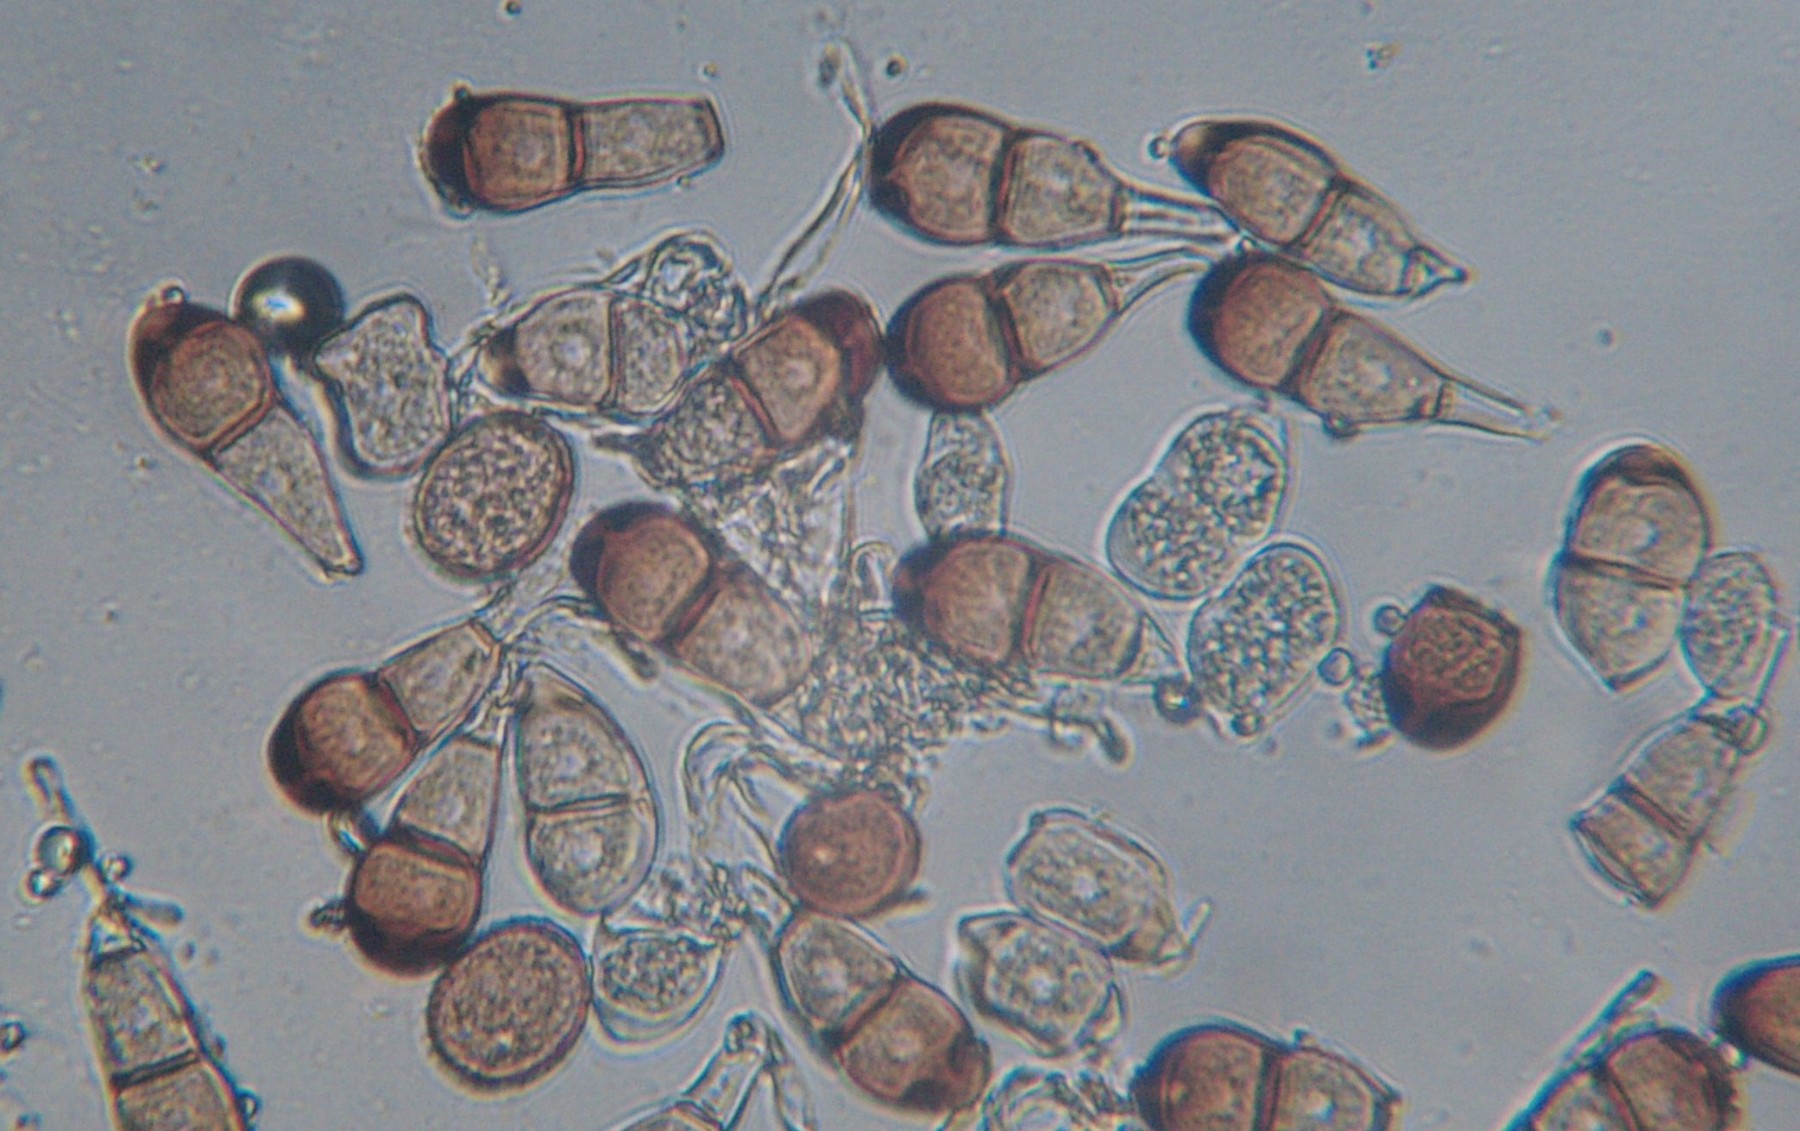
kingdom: Fungi
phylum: Basidiomycota
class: Pucciniomycetes
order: Pucciniales
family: Pucciniaceae
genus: Puccinia
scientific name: Puccinia polygoni-amphibii
